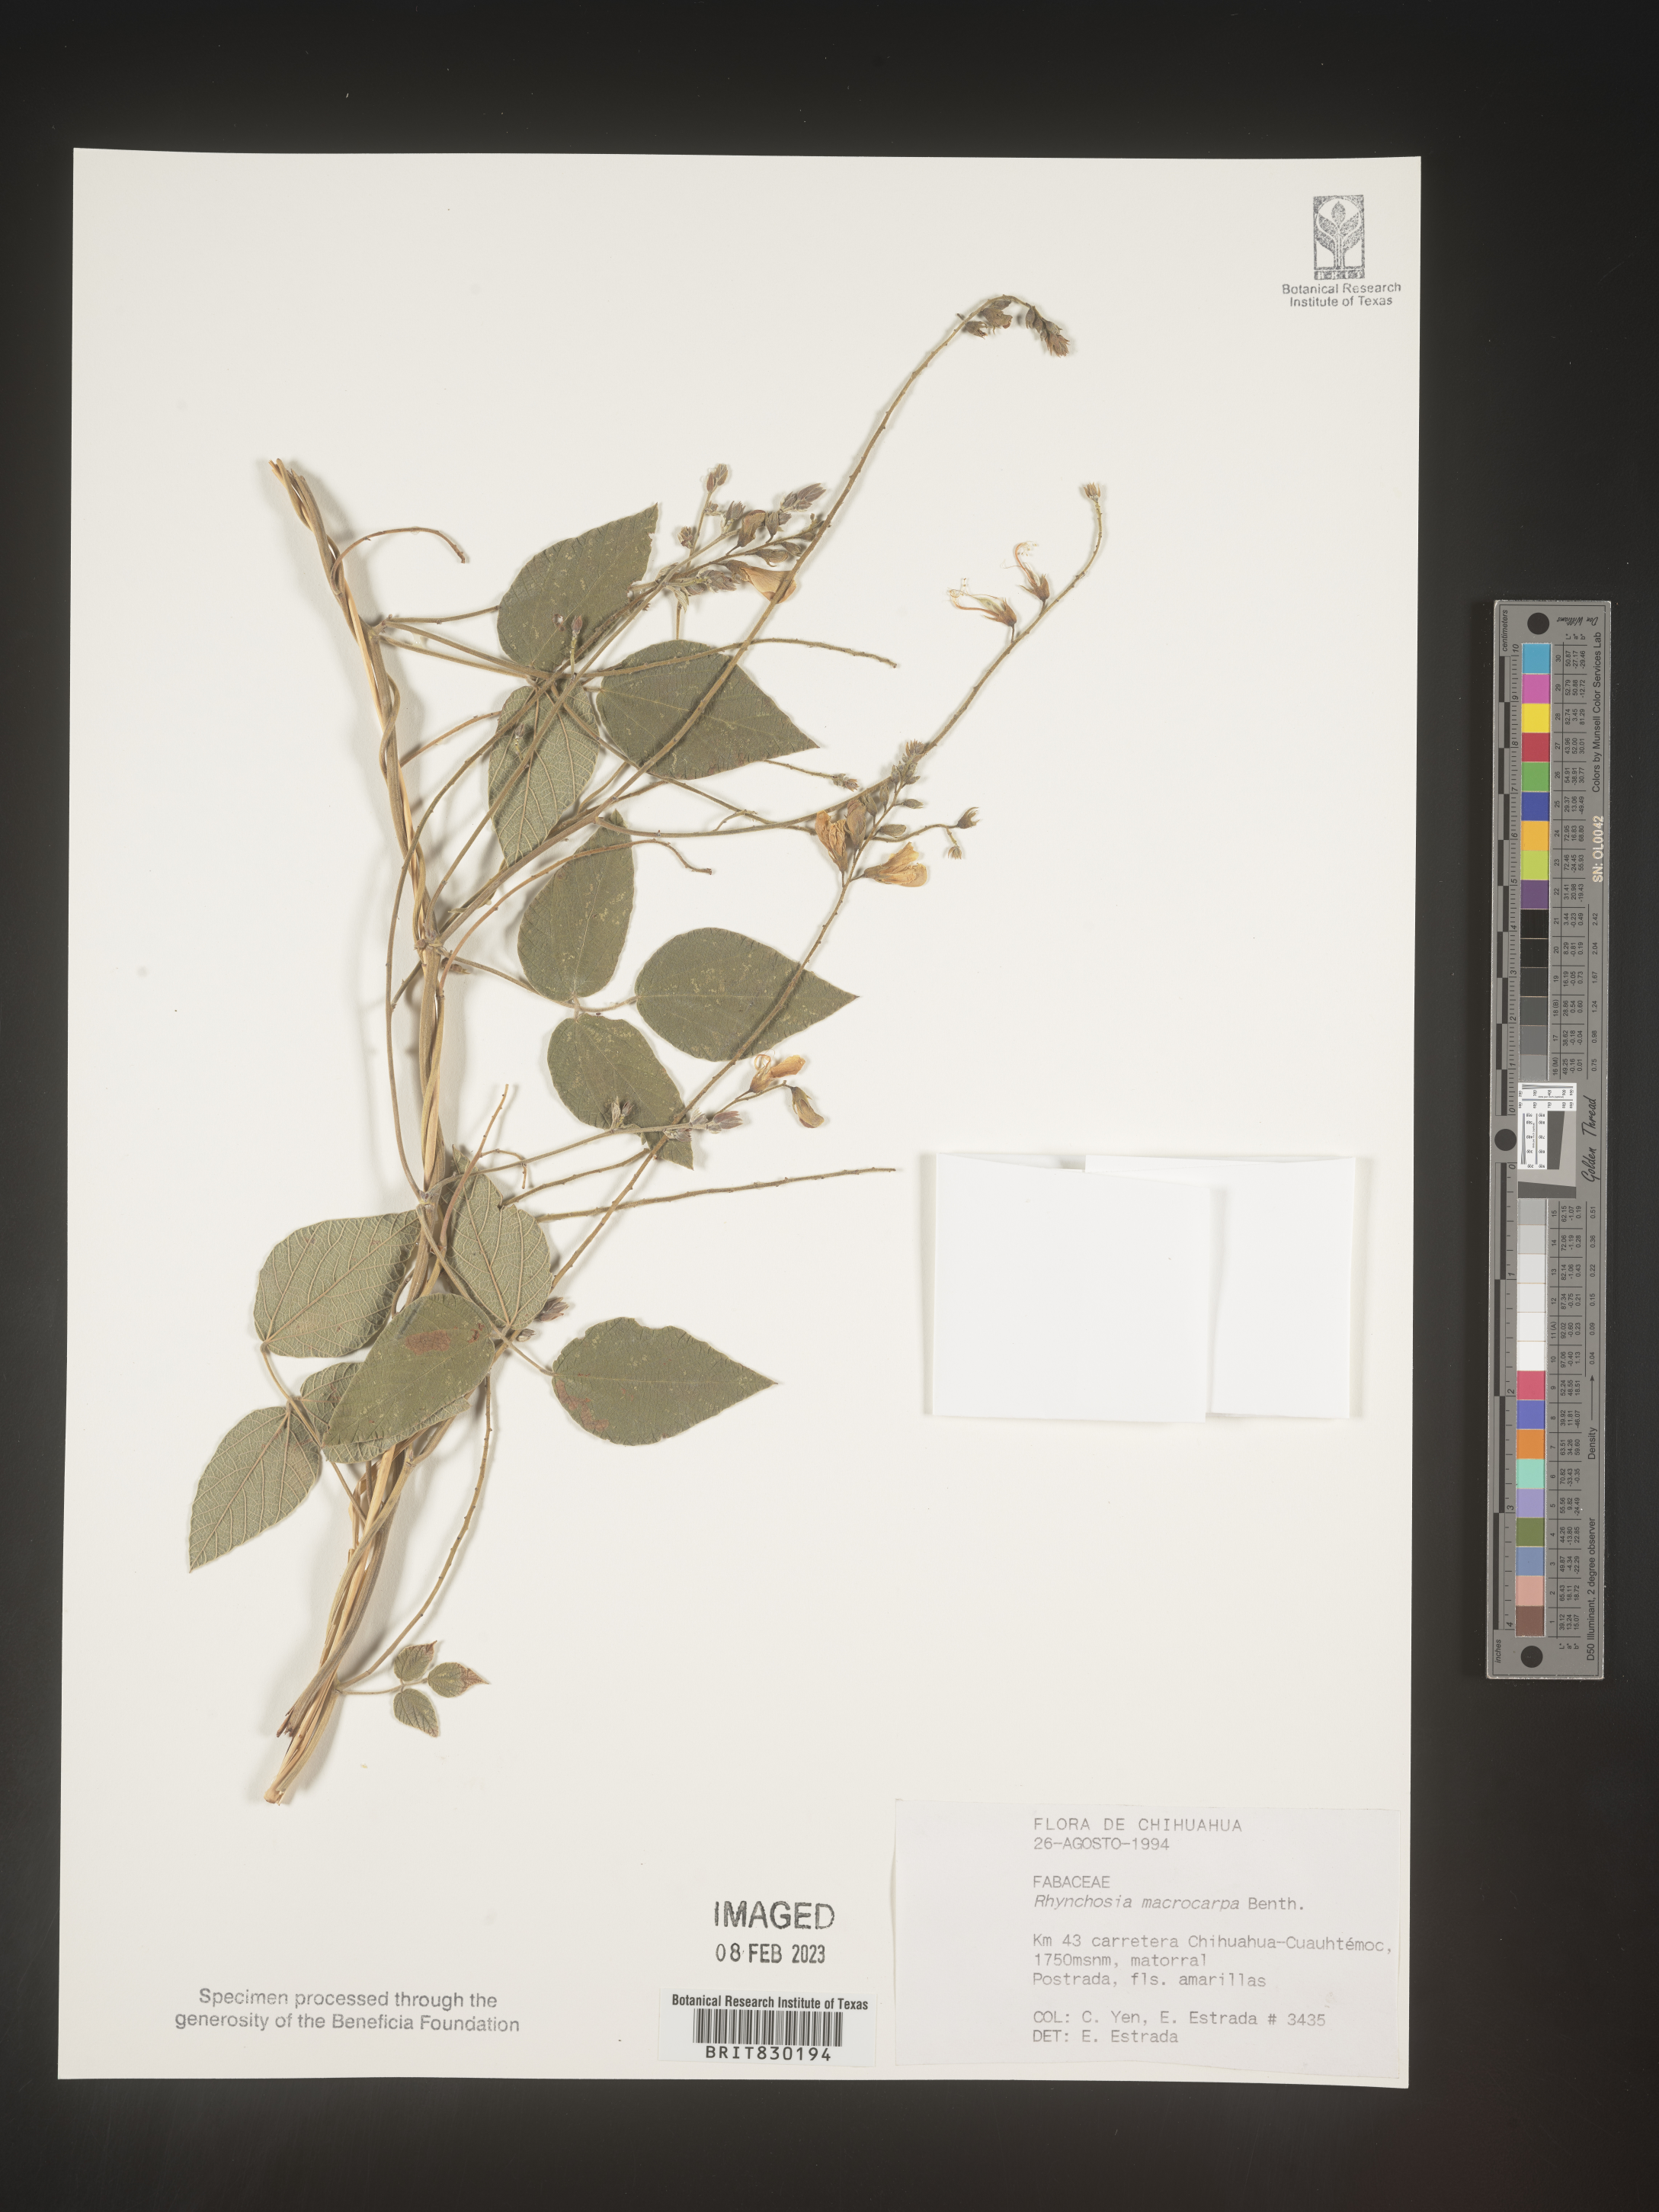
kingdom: Plantae
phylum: Tracheophyta
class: Magnoliopsida
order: Fabales
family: Fabaceae
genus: Rhynchosia
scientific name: Rhynchosia
